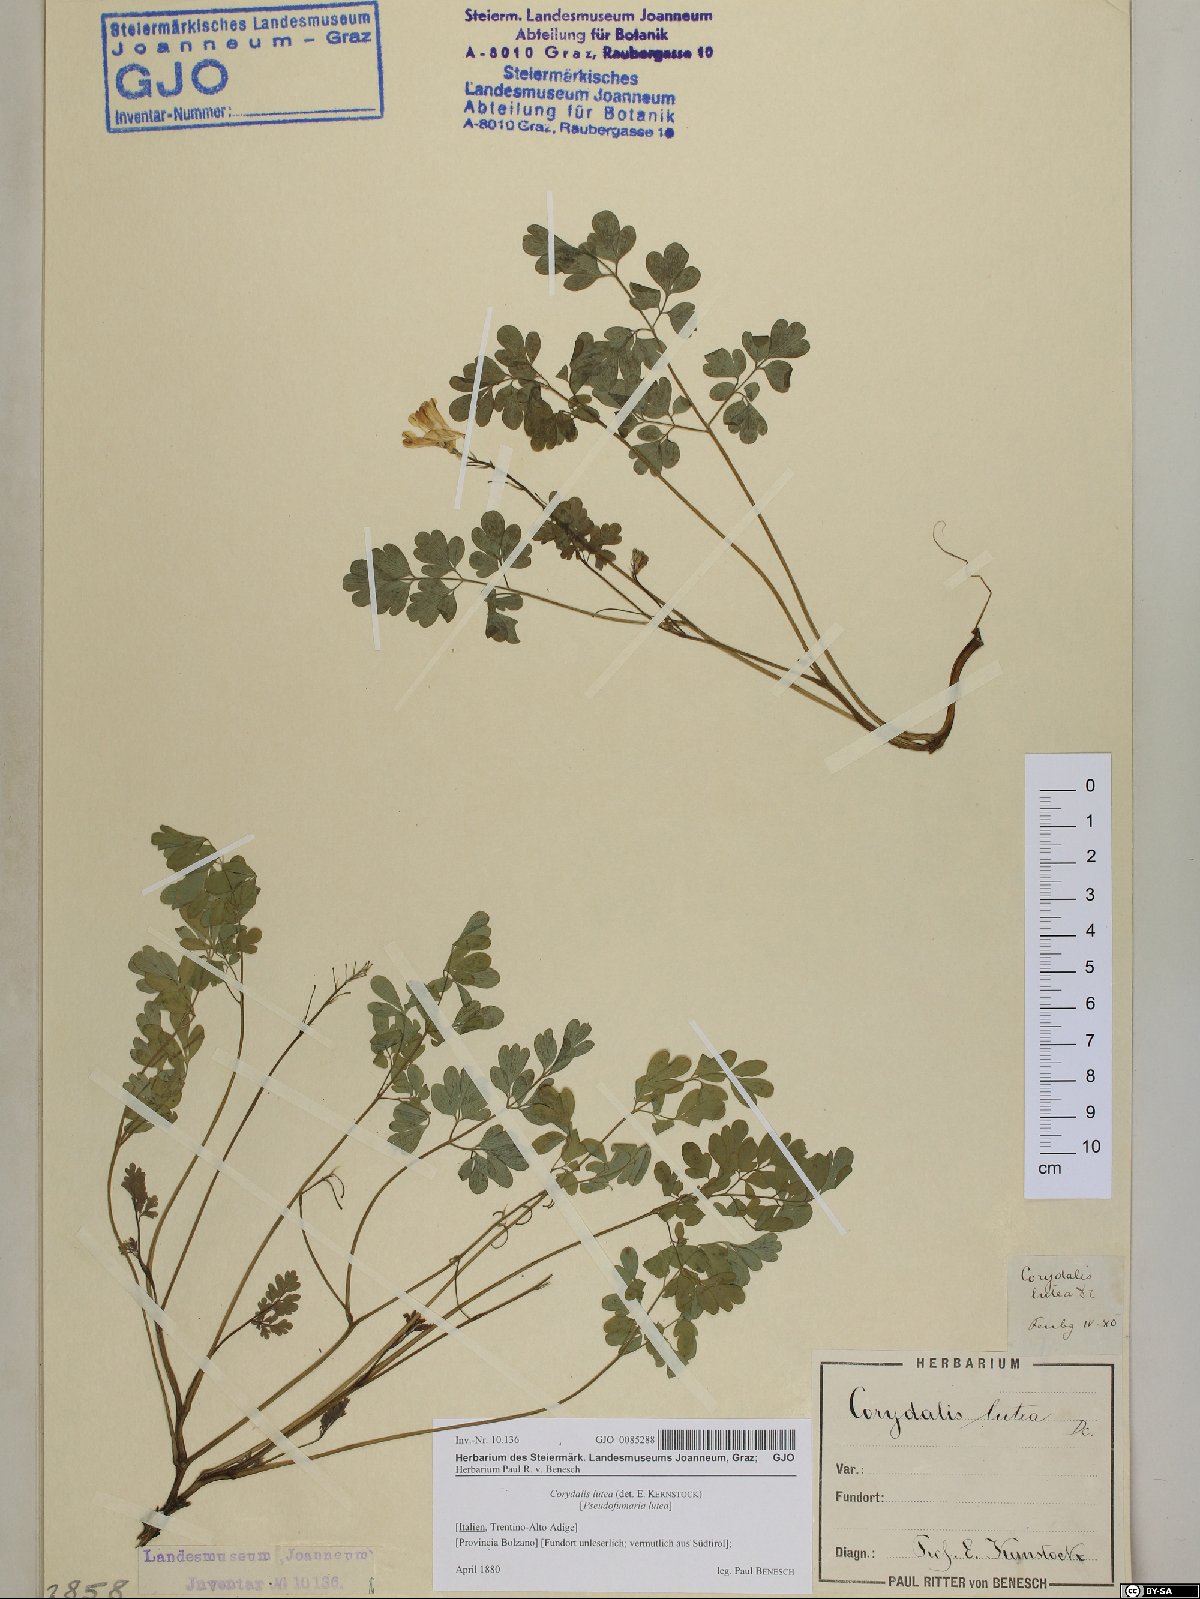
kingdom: Plantae
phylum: Tracheophyta
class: Magnoliopsida
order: Ranunculales
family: Papaveraceae
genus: Pseudofumaria
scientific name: Pseudofumaria lutea
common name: Yellow corydalis
